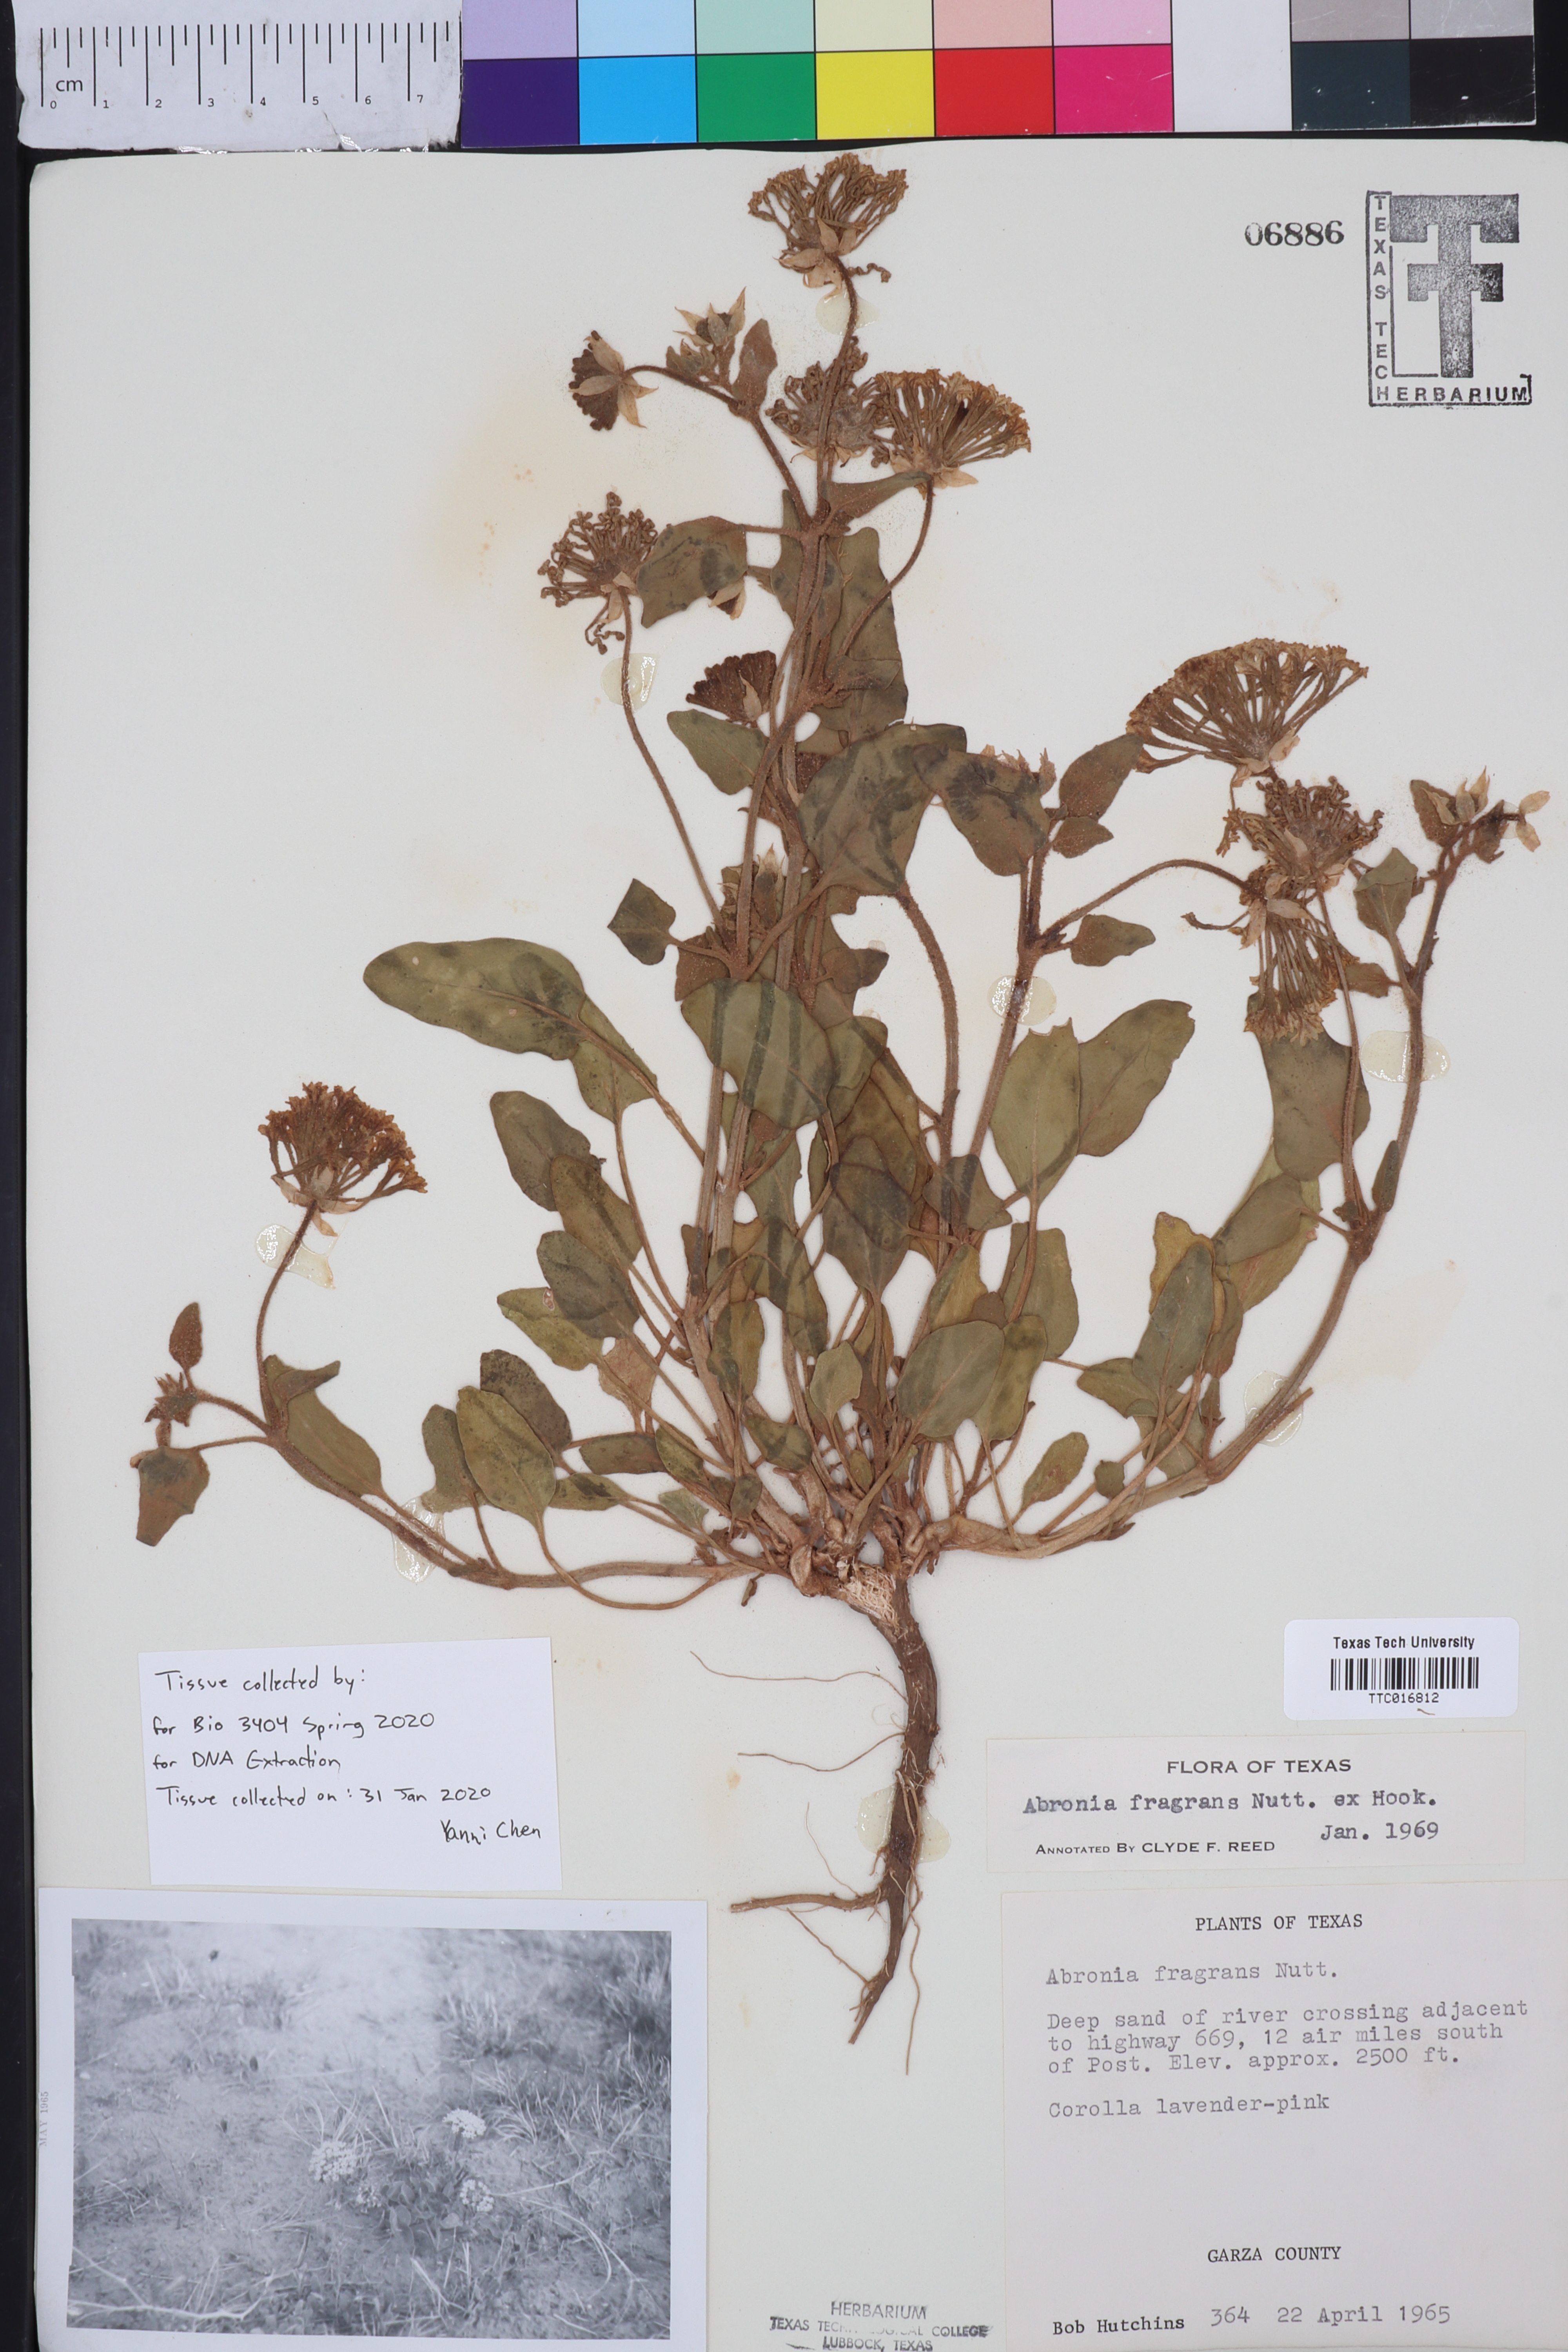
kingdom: Plantae
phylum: Tracheophyta
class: Magnoliopsida
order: Caryophyllales
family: Nyctaginaceae
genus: Abronia
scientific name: Abronia fragrans
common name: Fragrant sand-verbena
